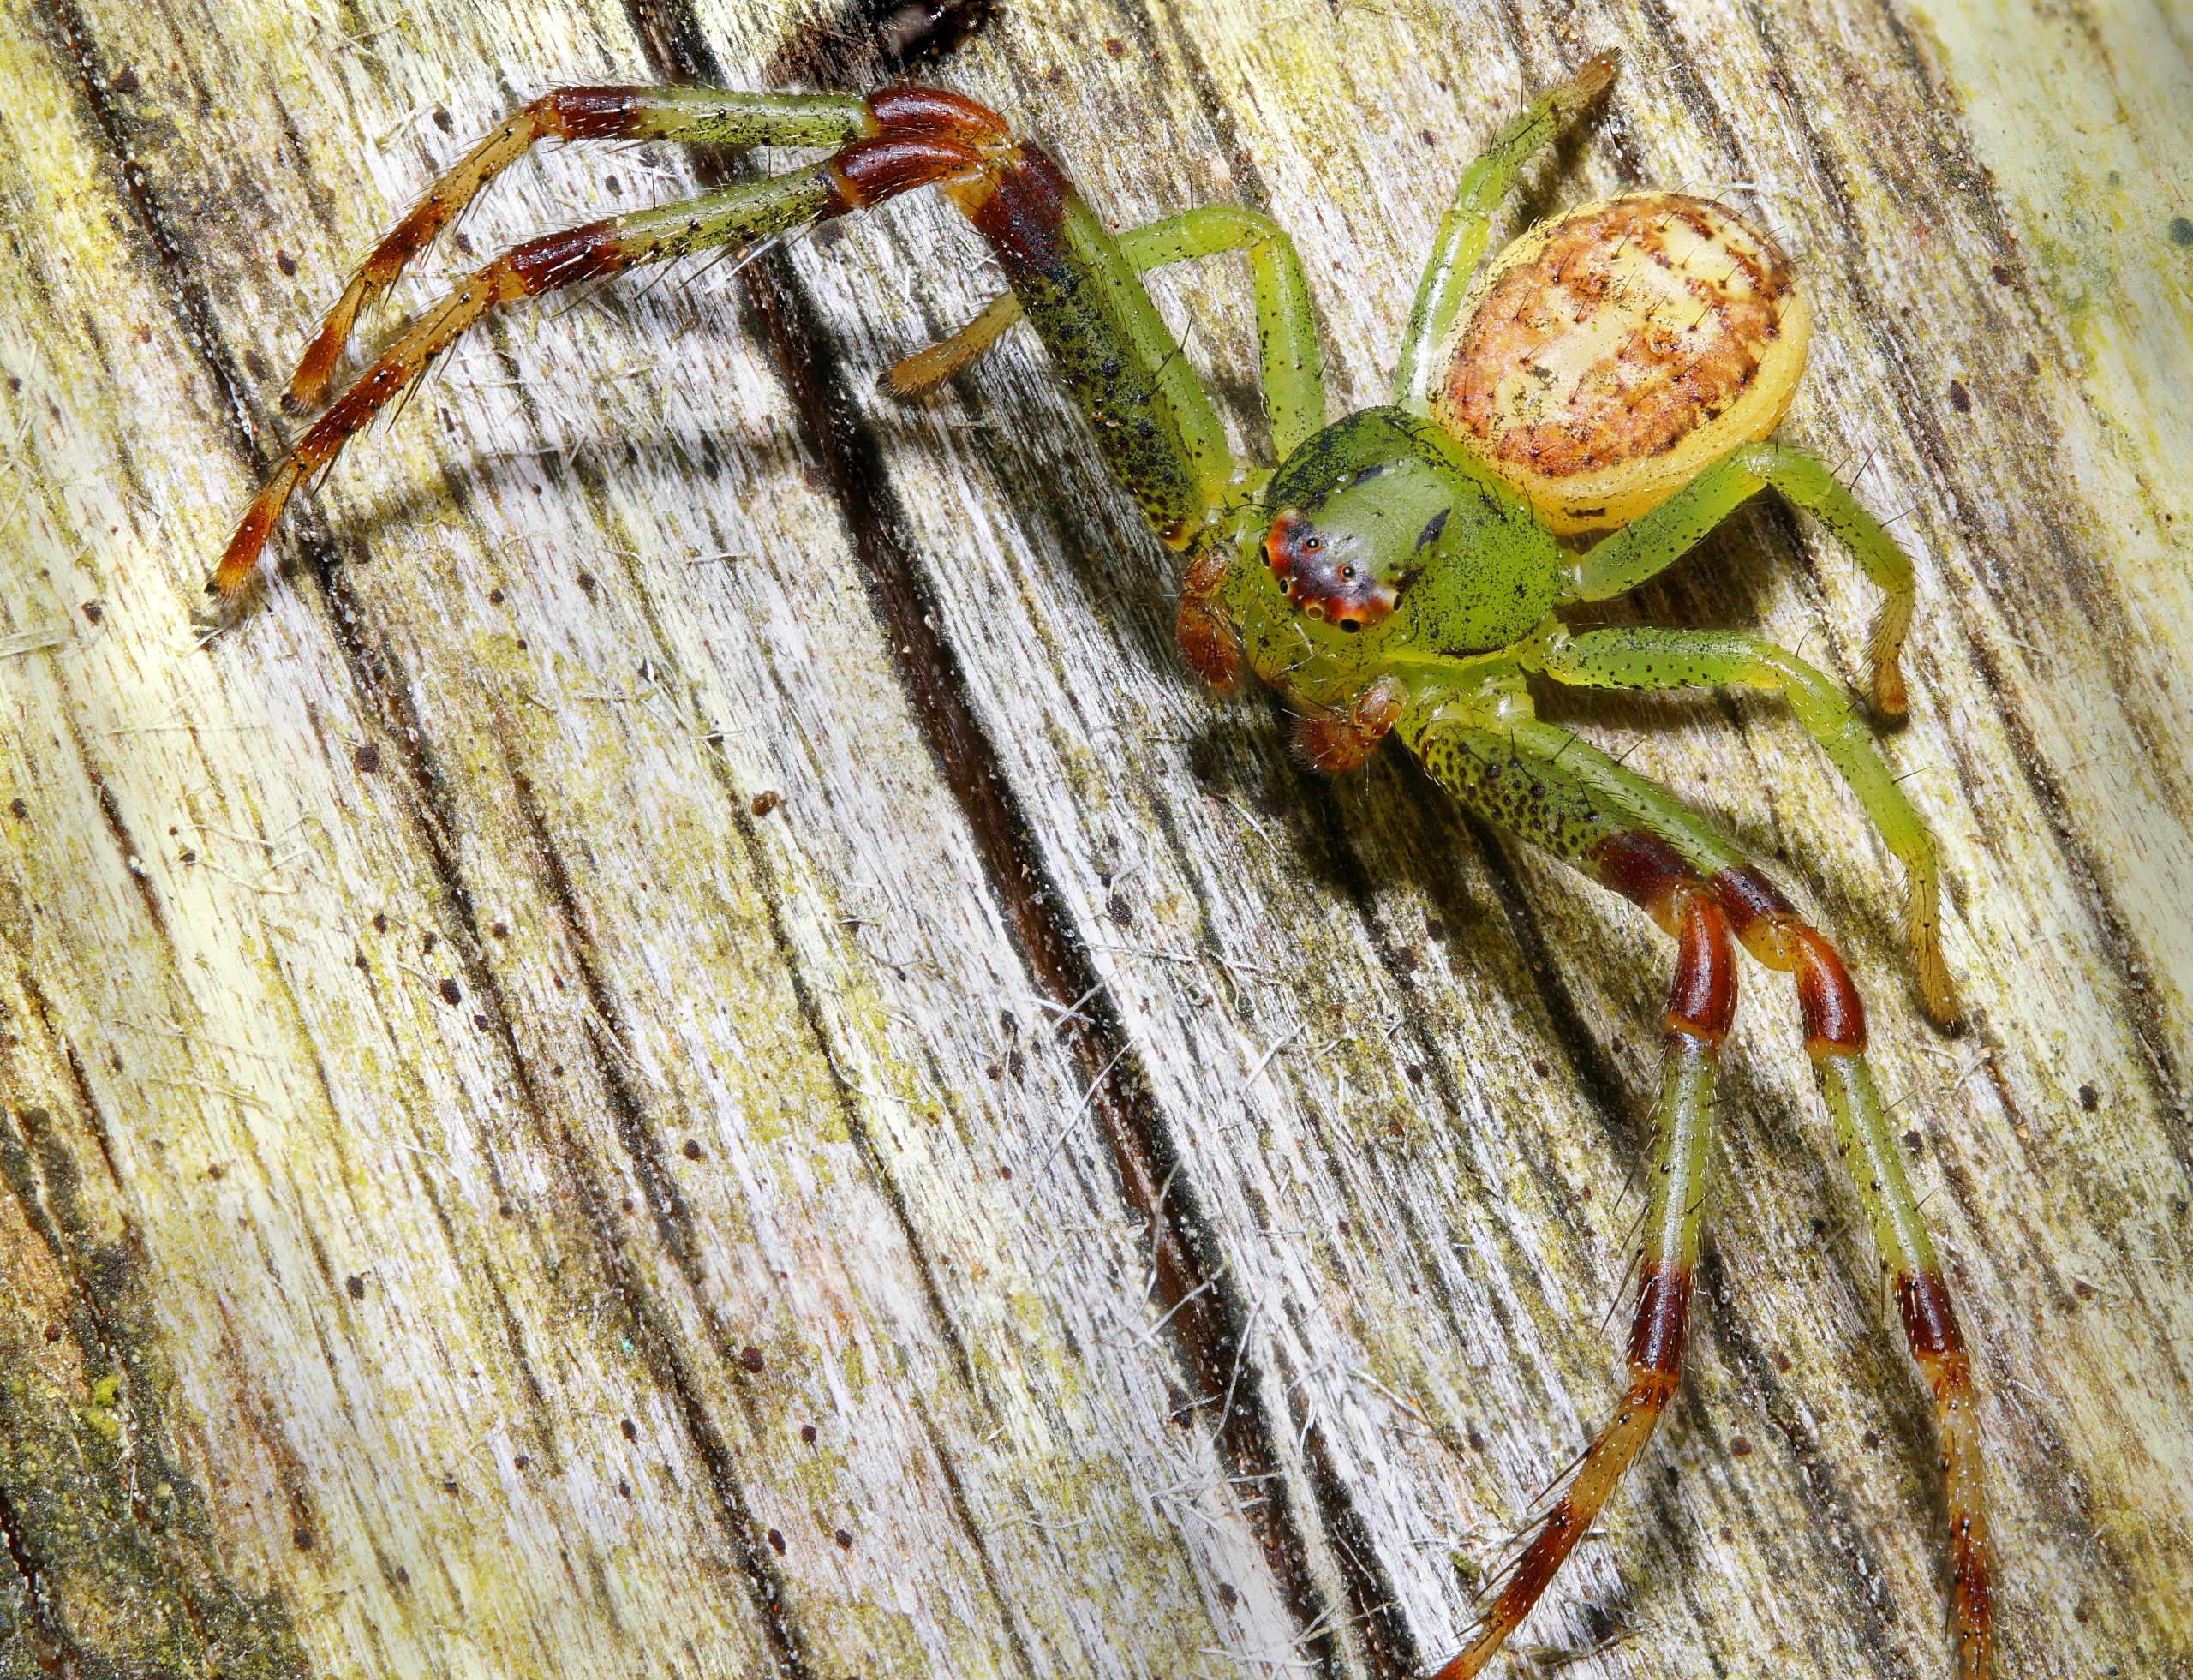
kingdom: Animalia
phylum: Arthropoda
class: Arachnida
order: Araneae
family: Thomisidae
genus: Diaea
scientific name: Diaea dorsata
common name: Grøn krabbeedderkop
